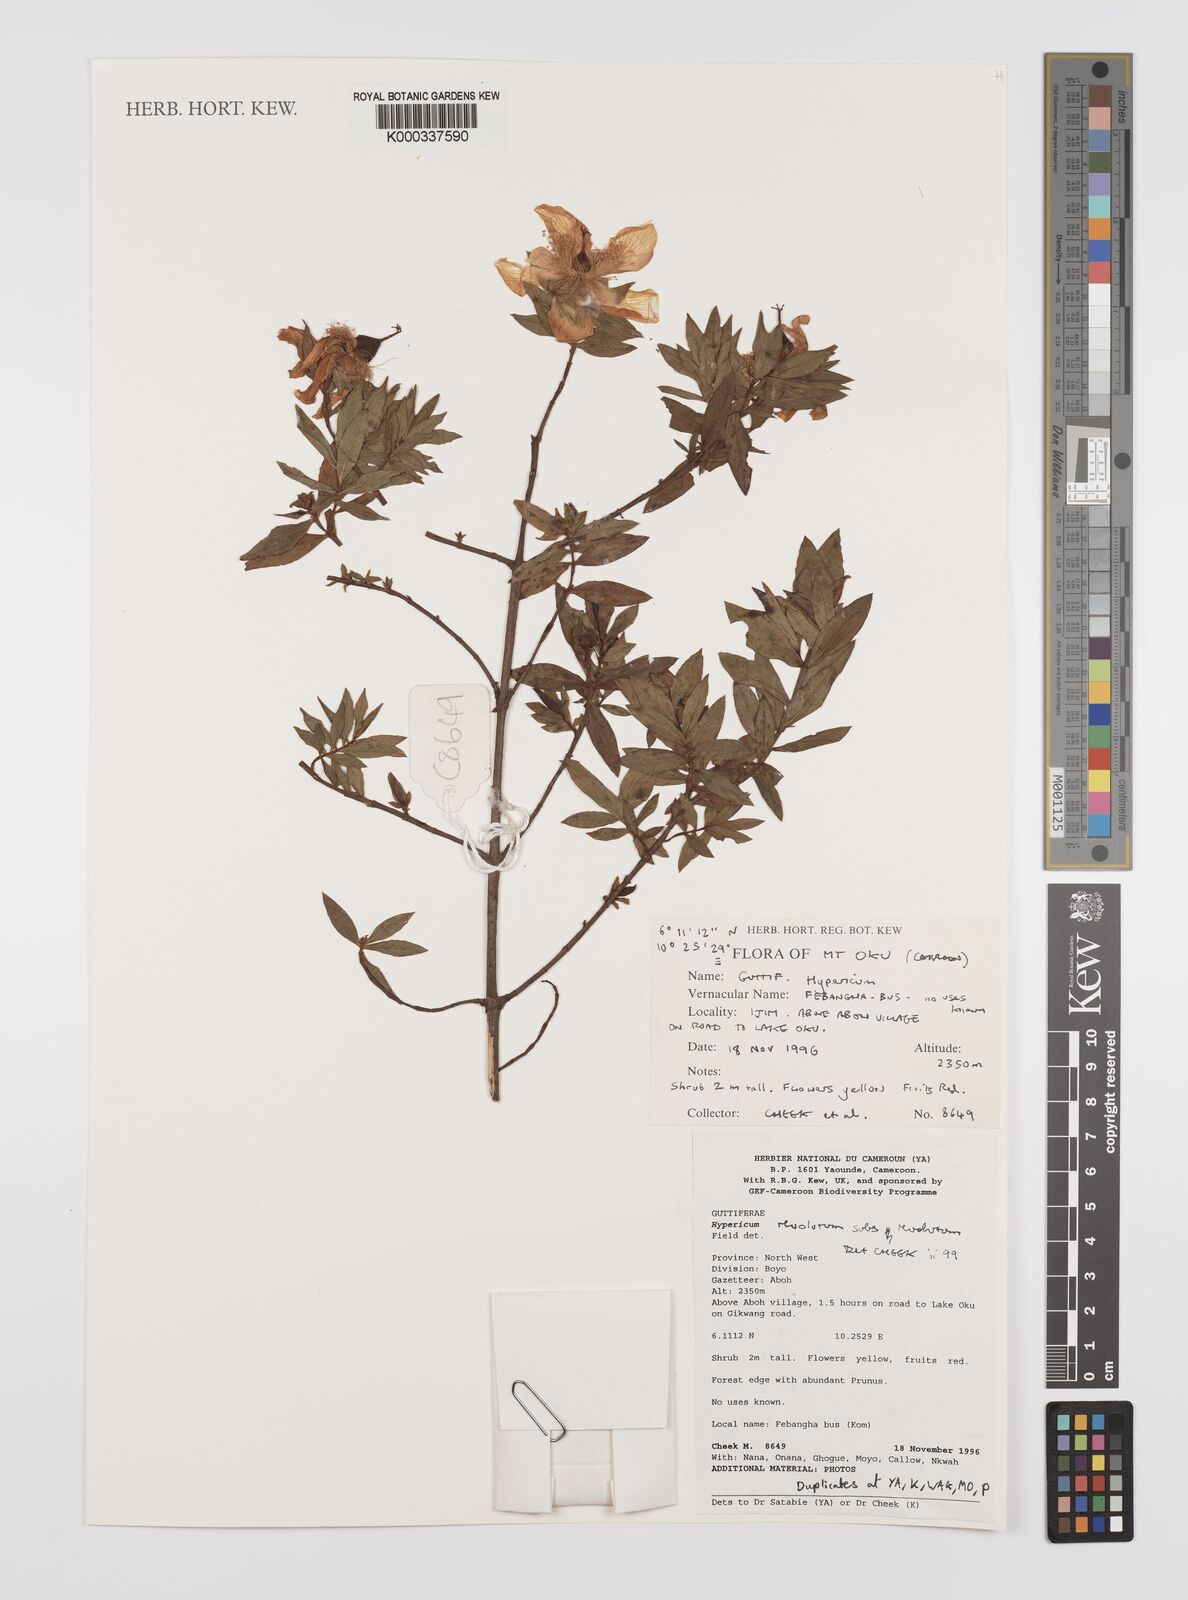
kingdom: Plantae
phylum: Tracheophyta
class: Magnoliopsida
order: Malpighiales
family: Hypericaceae
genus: Hypericum
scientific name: Hypericum revolutum
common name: Curry bush
